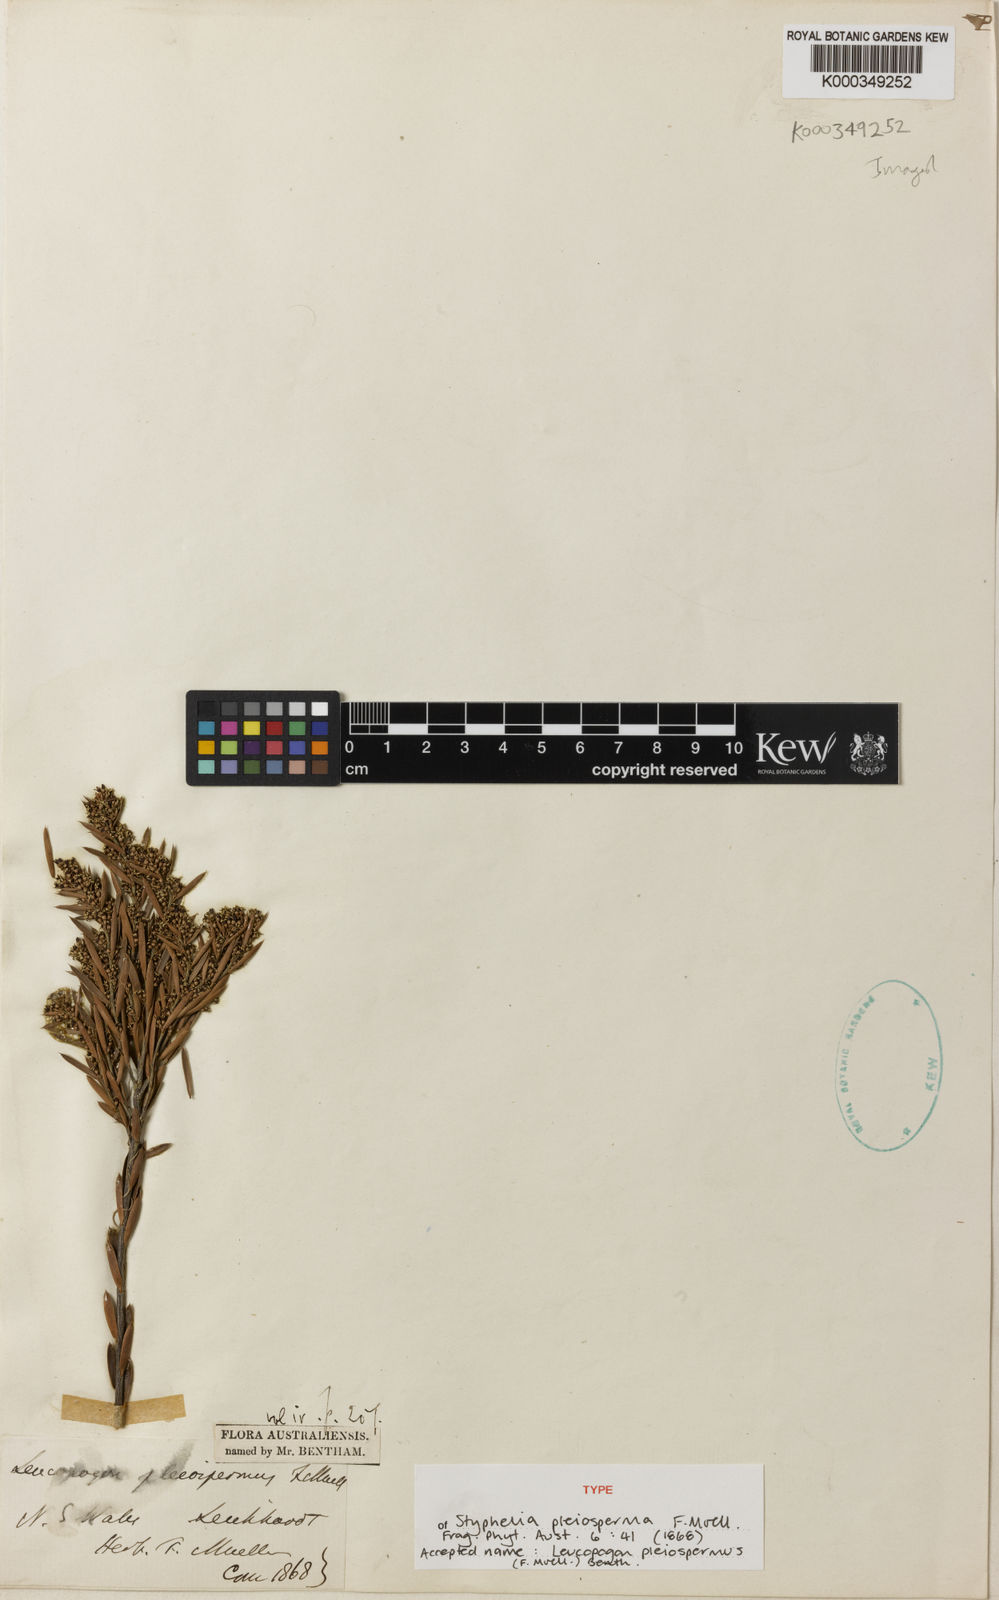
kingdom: Plantae
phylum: Tracheophyta
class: Magnoliopsida
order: Ericales
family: Ericaceae
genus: Agiortia
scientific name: Agiortia pleiosperma
